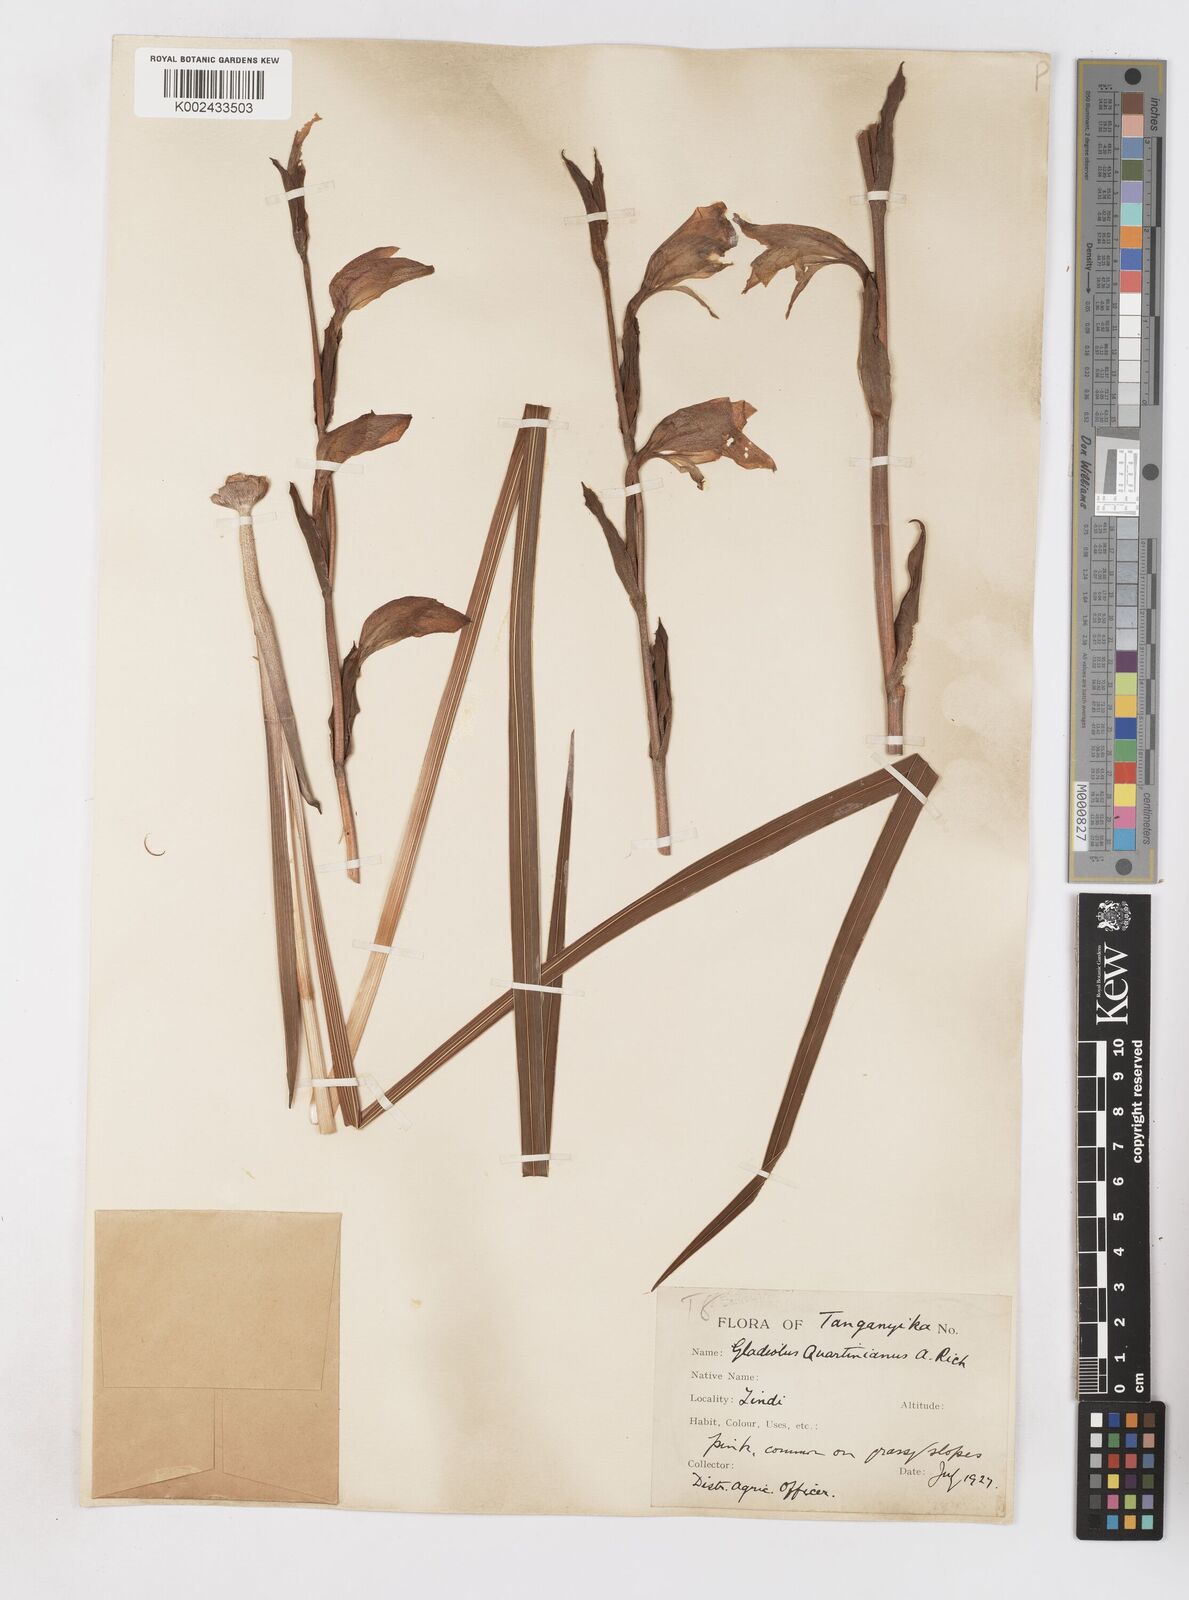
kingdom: Plantae
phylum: Tracheophyta
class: Liliopsida
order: Asparagales
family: Iridaceae
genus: Gladiolus
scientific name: Gladiolus dalenii
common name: Cornflag
